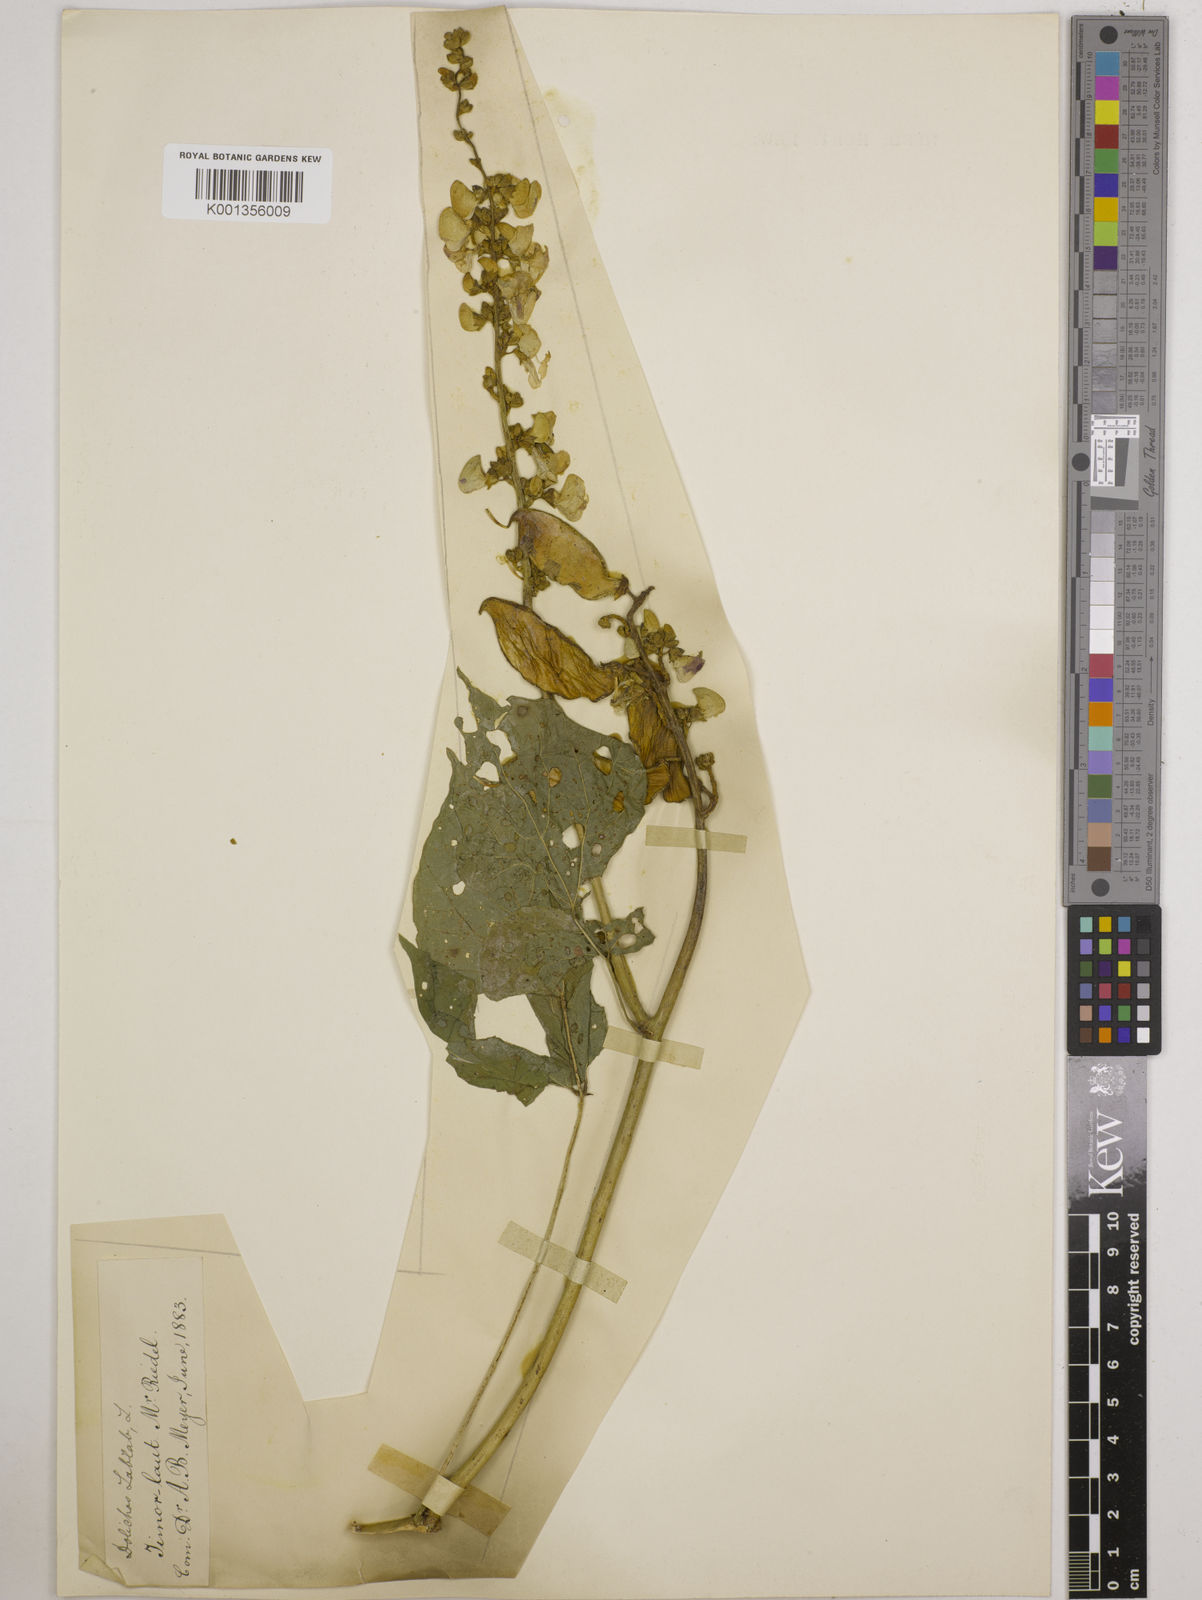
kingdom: Plantae
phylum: Tracheophyta
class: Magnoliopsida
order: Fabales
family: Fabaceae
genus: Lablab
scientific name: Lablab purpureus
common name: Lablab-bean
